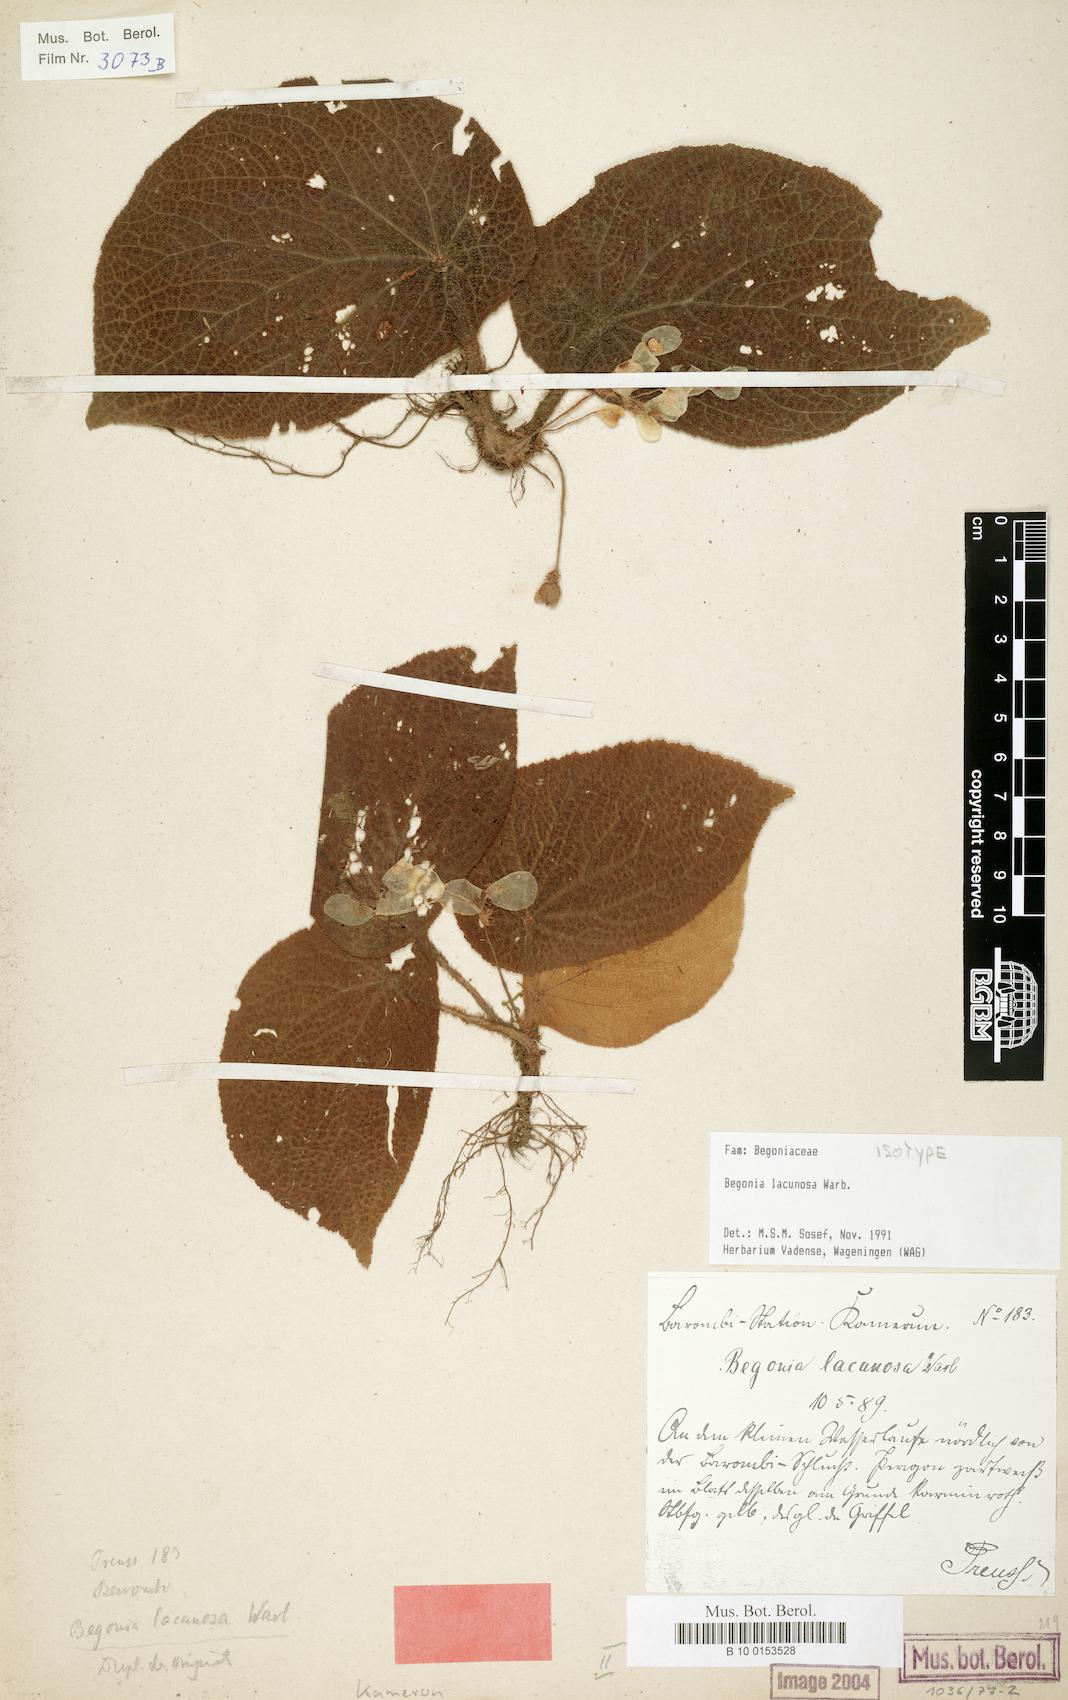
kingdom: Plantae
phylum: Tracheophyta
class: Magnoliopsida
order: Cucurbitales
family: Begoniaceae
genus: Begonia
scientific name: Begonia lacunosa
